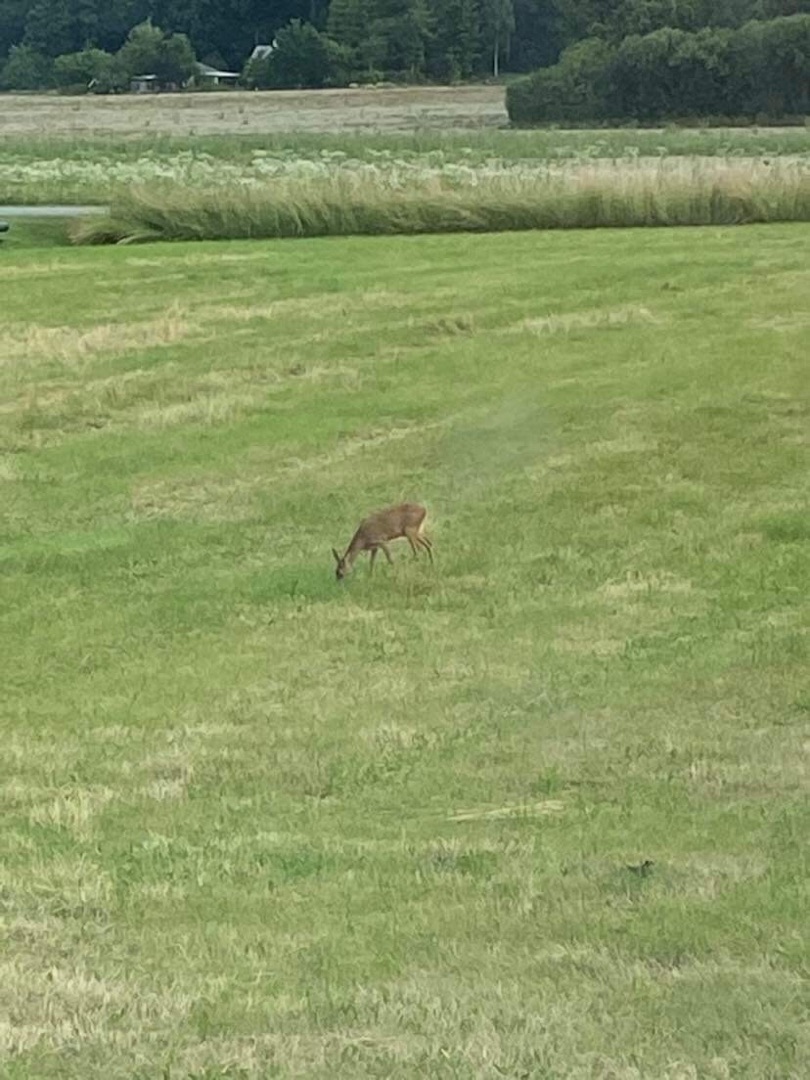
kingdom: Animalia
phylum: Chordata
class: Mammalia
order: Artiodactyla
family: Cervidae
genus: Capreolus
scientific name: Capreolus capreolus
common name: Rådyr
